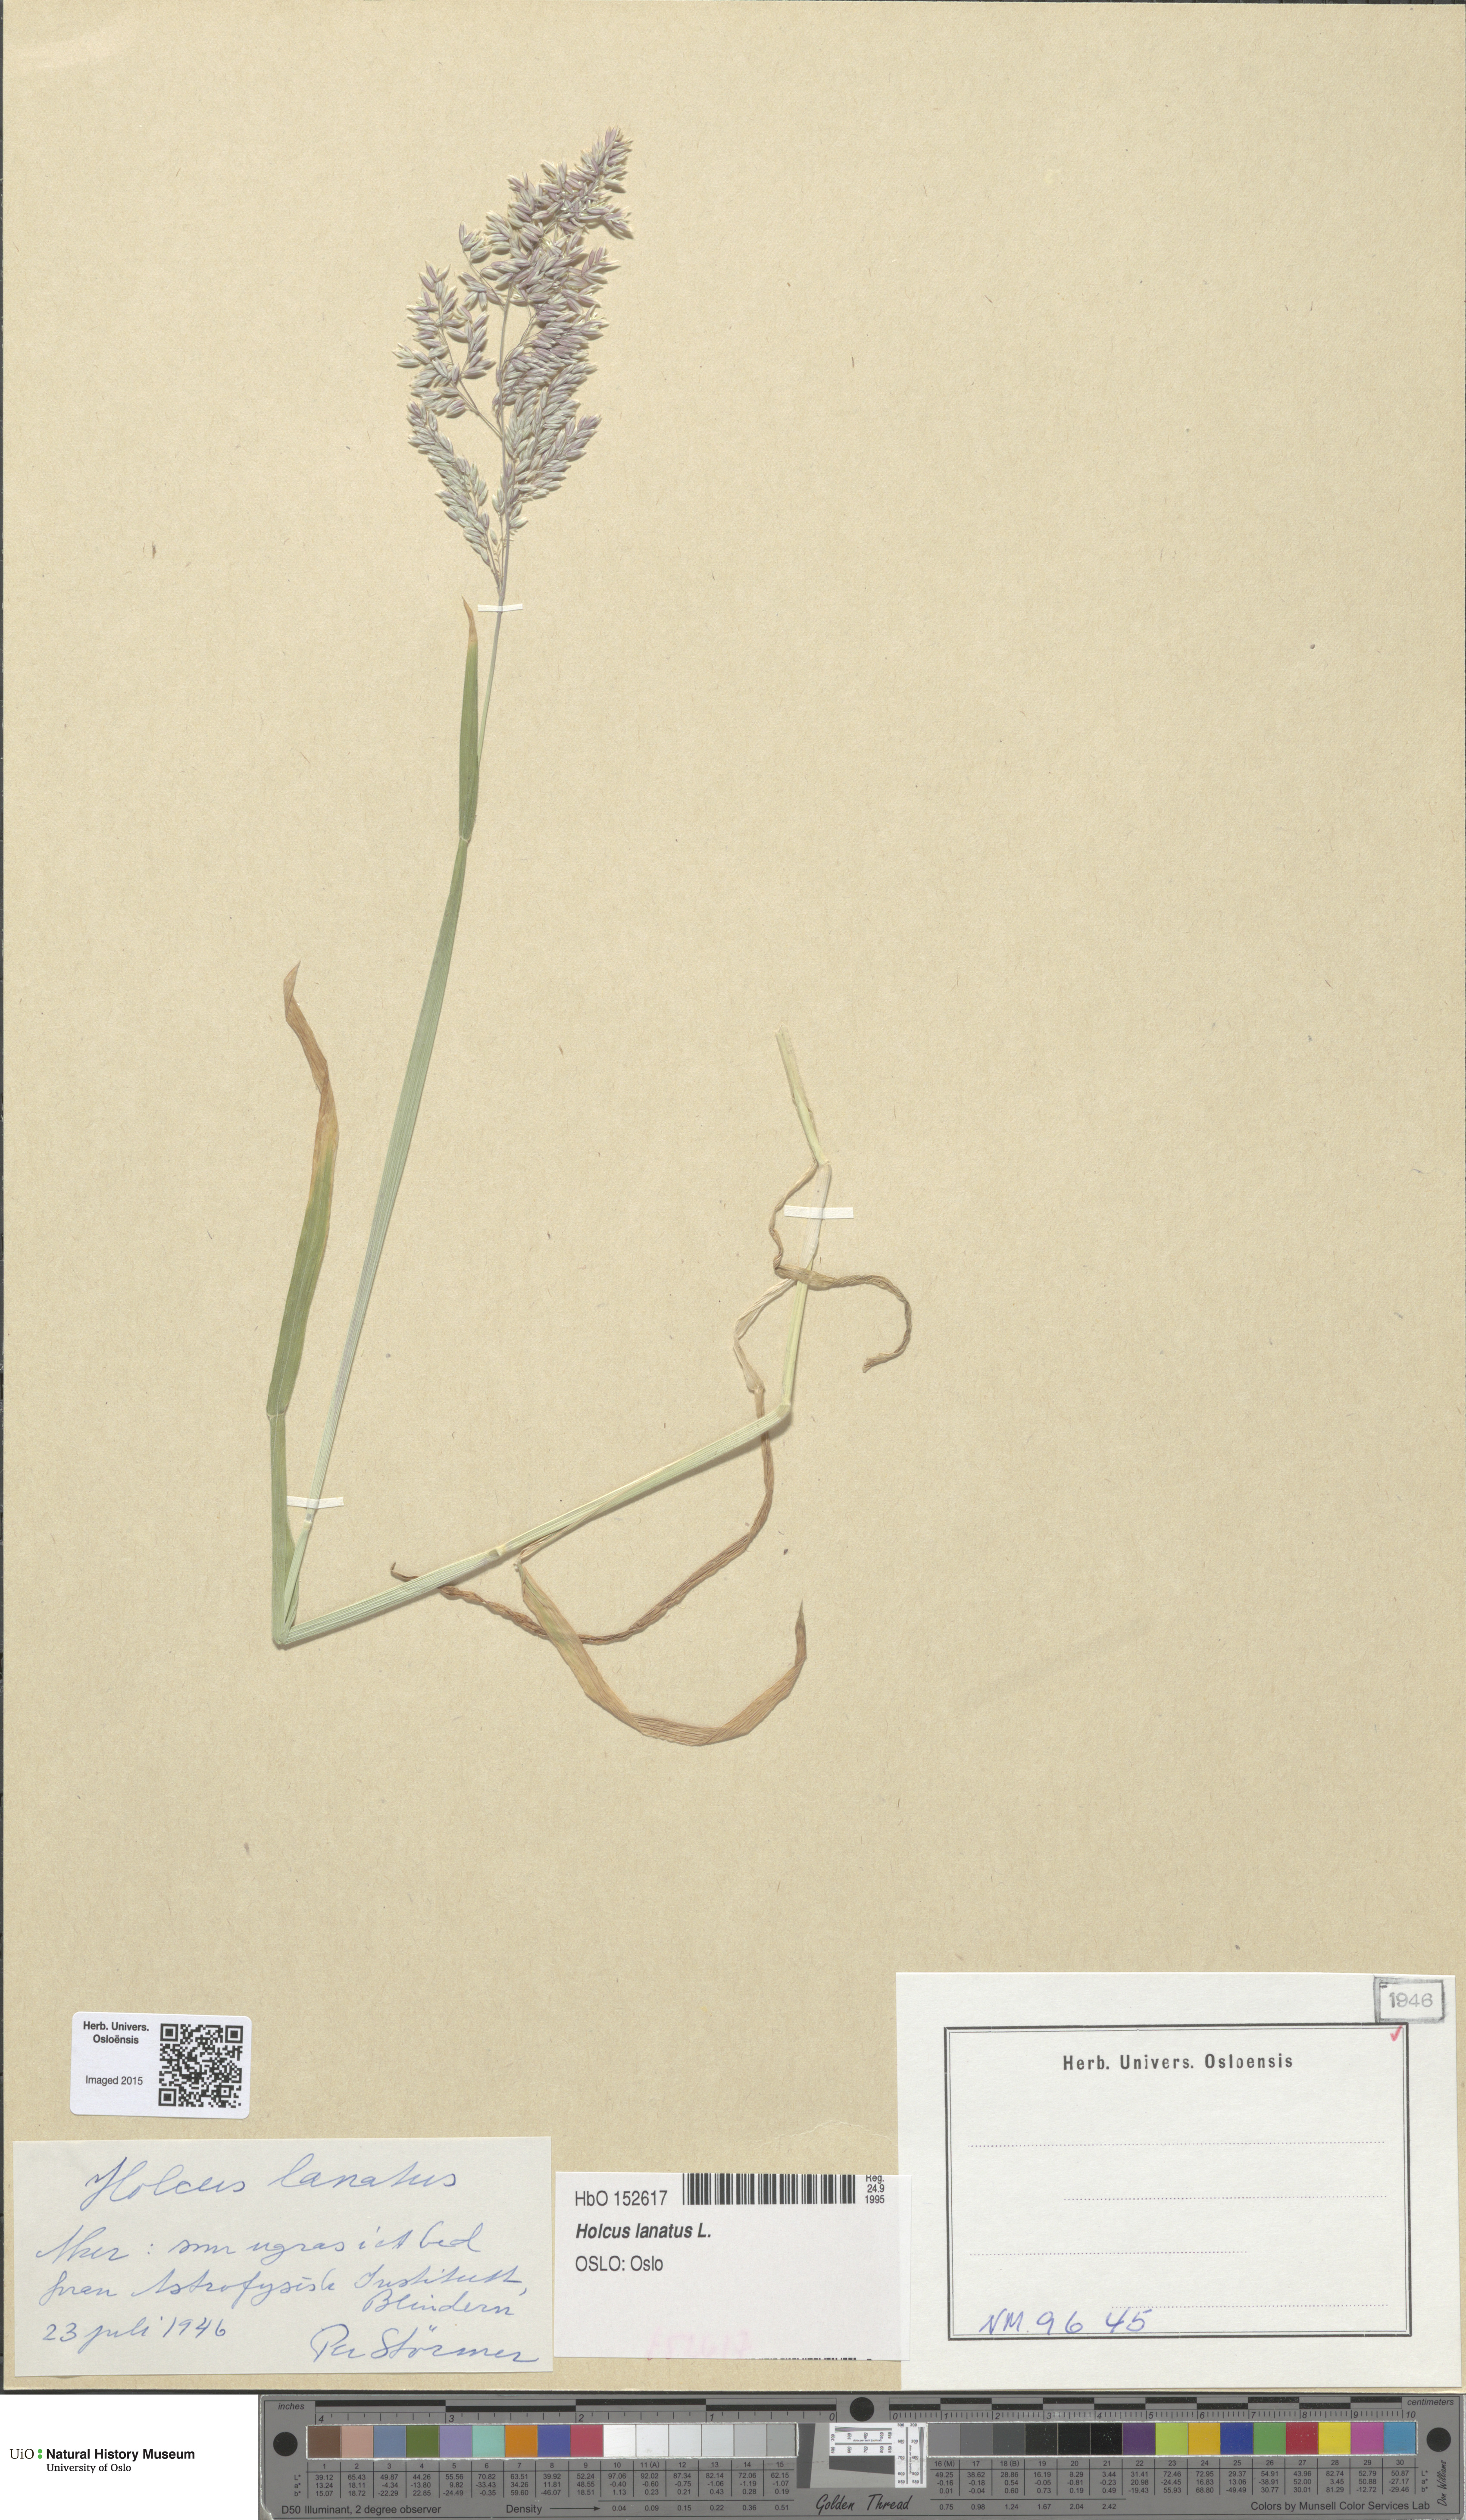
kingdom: Plantae
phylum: Tracheophyta
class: Liliopsida
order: Poales
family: Poaceae
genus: Holcus
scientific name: Holcus lanatus
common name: Yorkshire-fog
